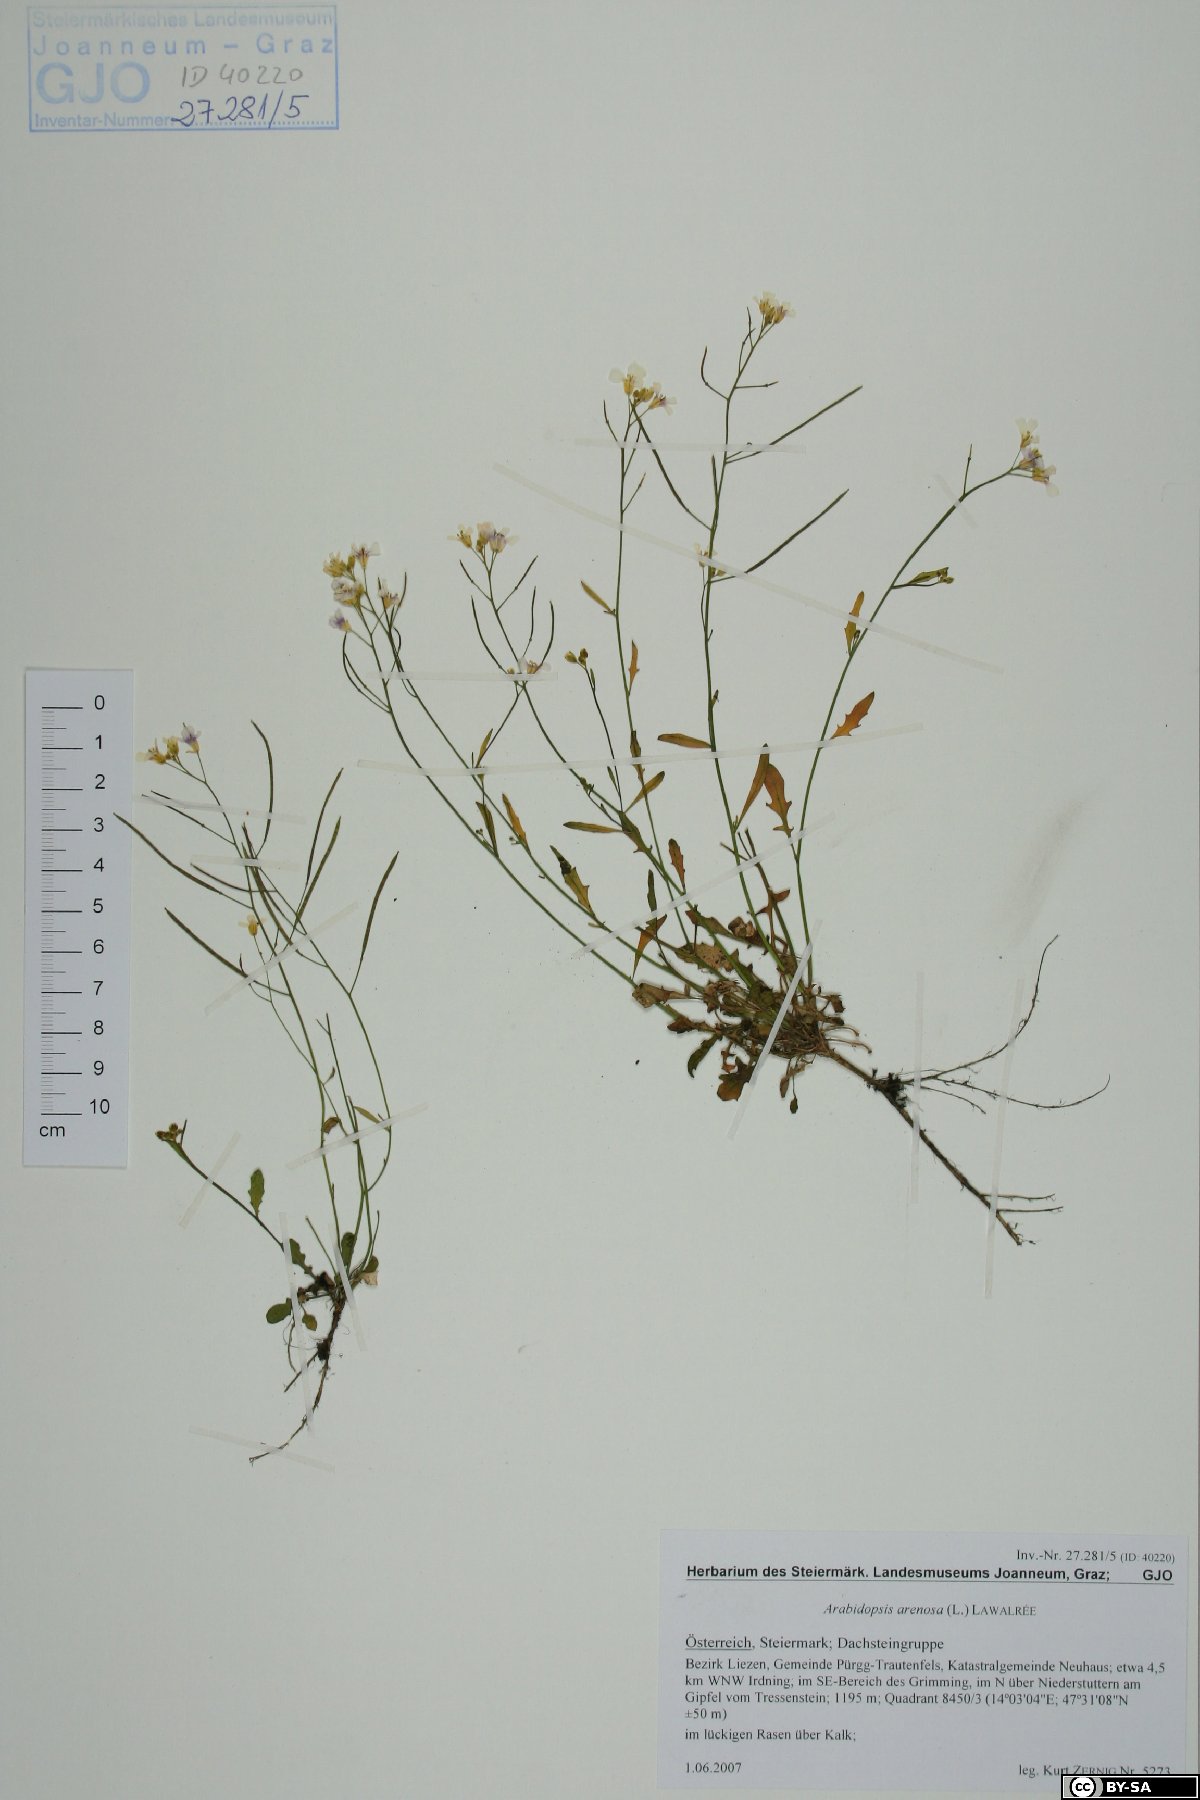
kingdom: Plantae
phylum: Tracheophyta
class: Magnoliopsida
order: Brassicales
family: Brassicaceae
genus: Arabidopsis
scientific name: Arabidopsis arenosa
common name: Sand rock-cress
